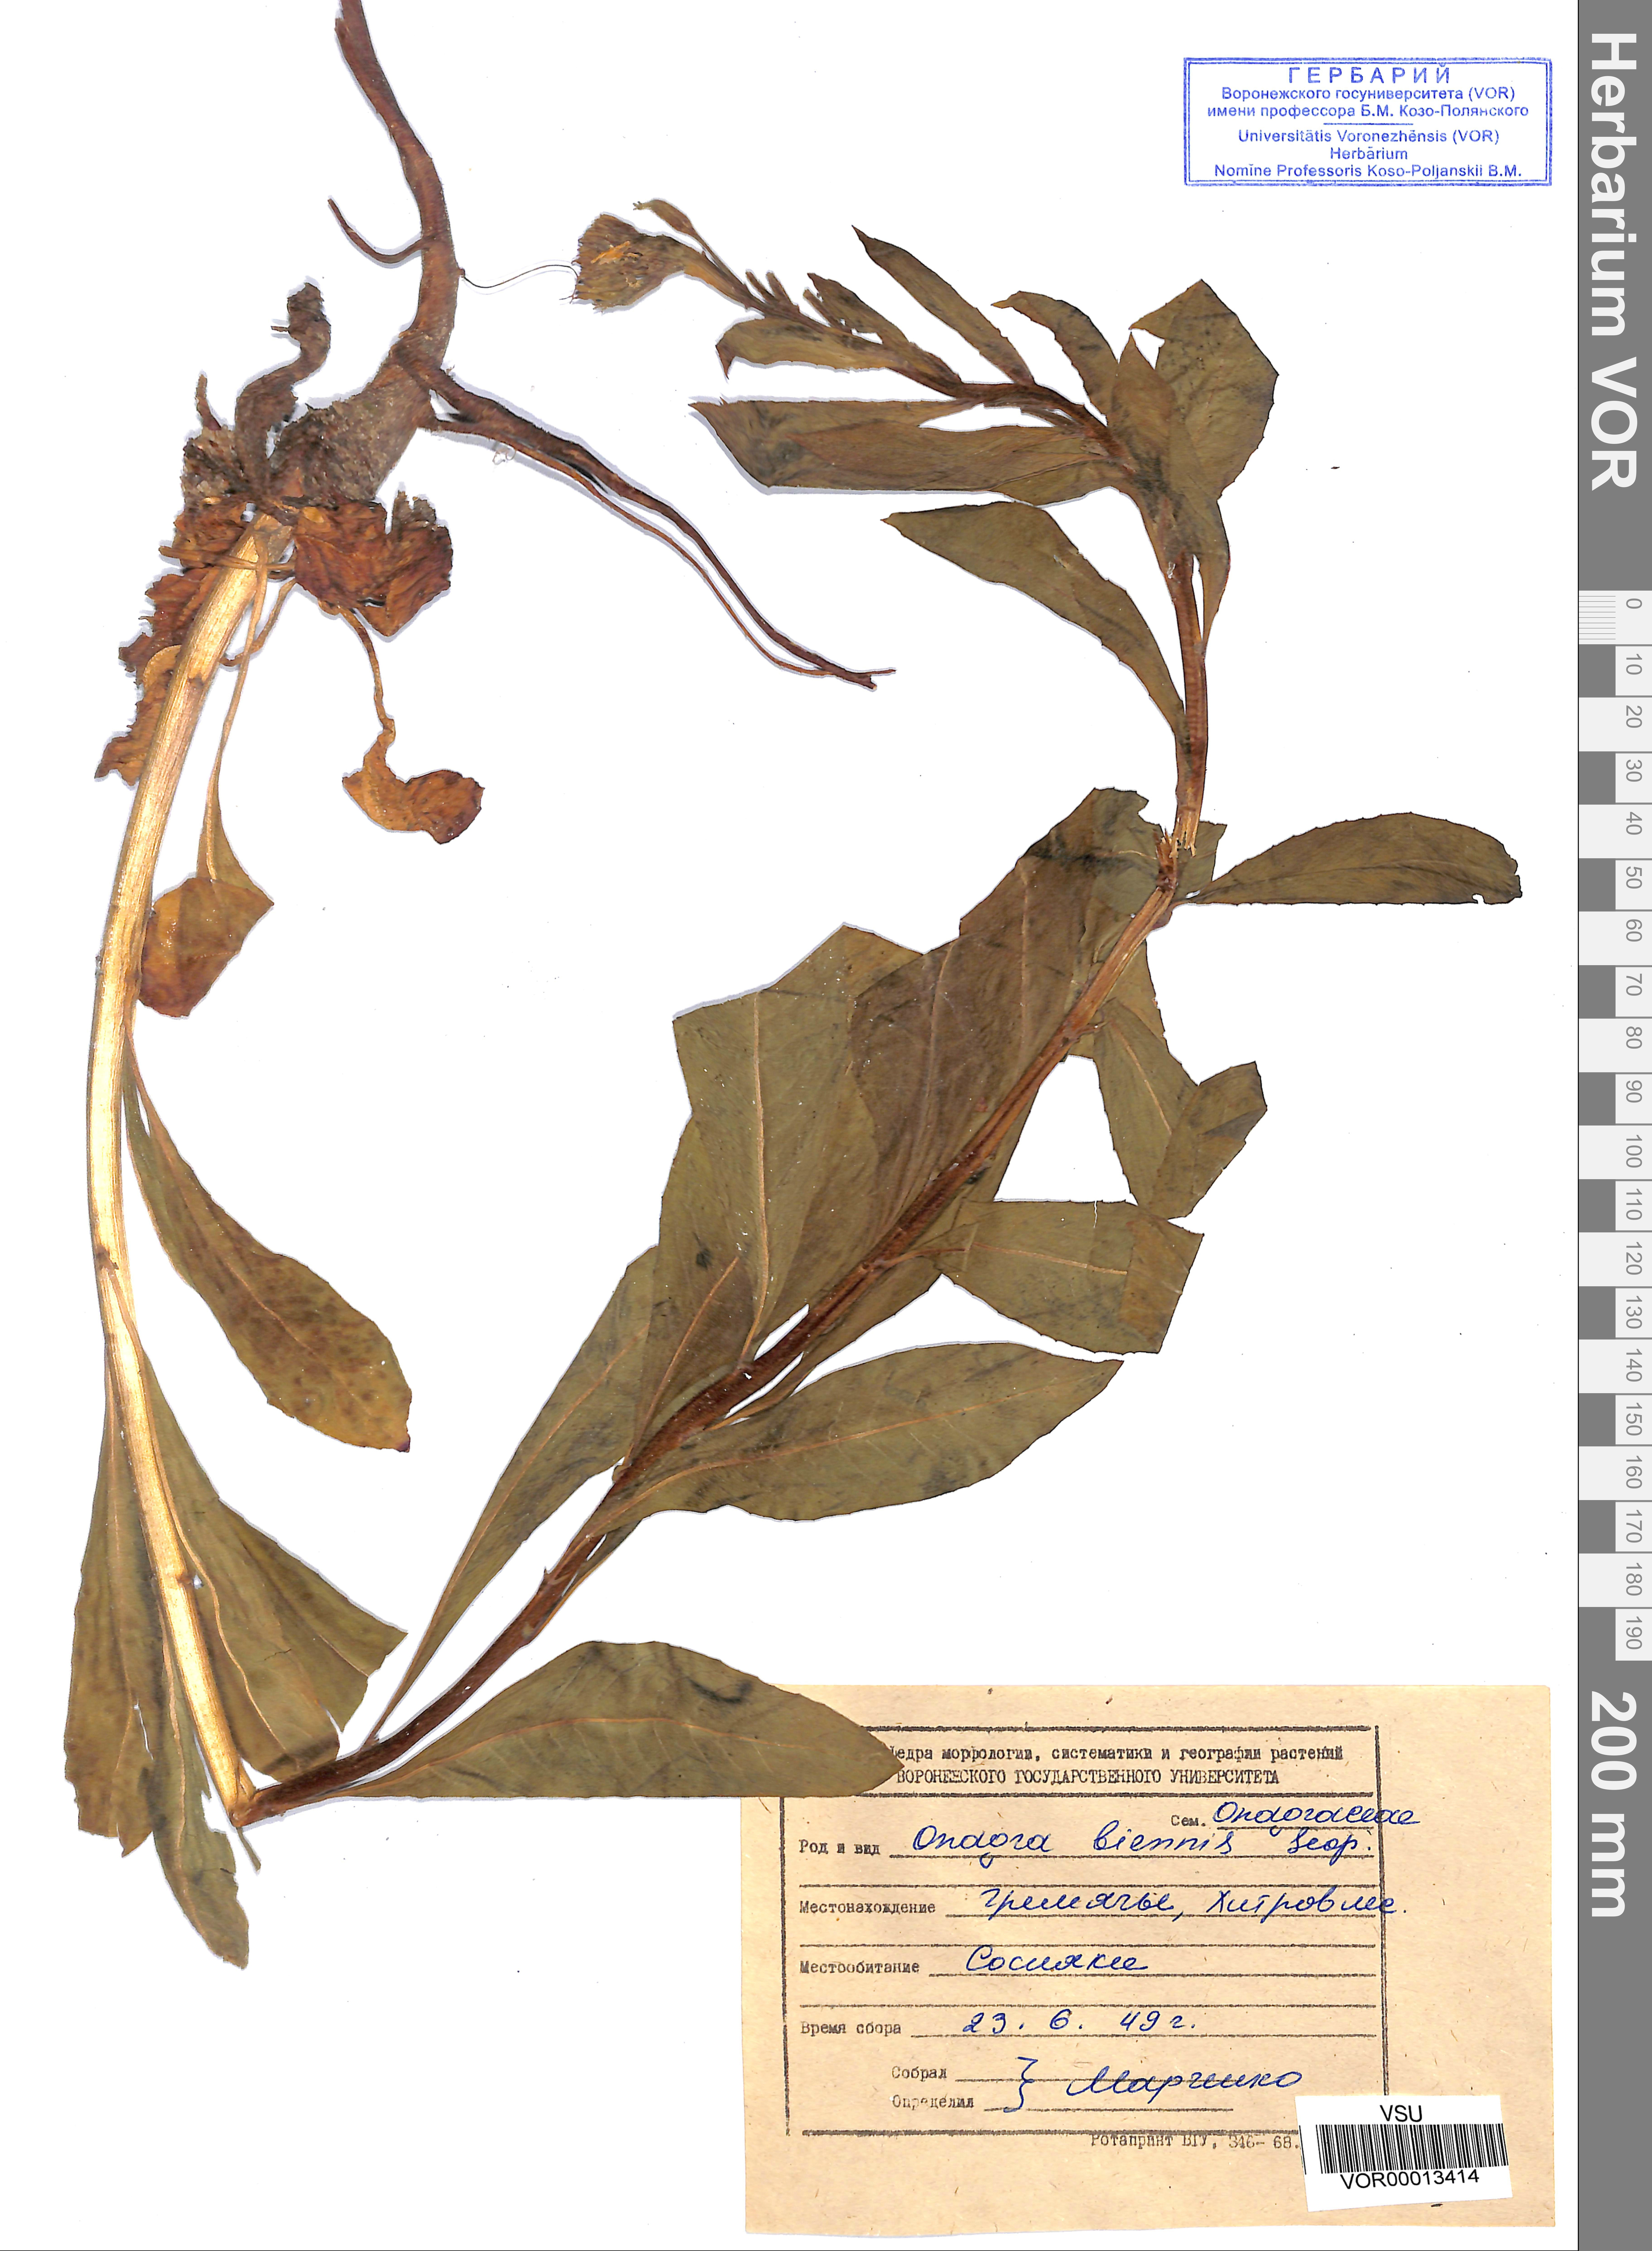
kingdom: Plantae
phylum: Tracheophyta
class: Magnoliopsida
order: Myrtales
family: Onagraceae
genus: Oenothera
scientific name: Oenothera biennis
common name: Common evening-primrose
